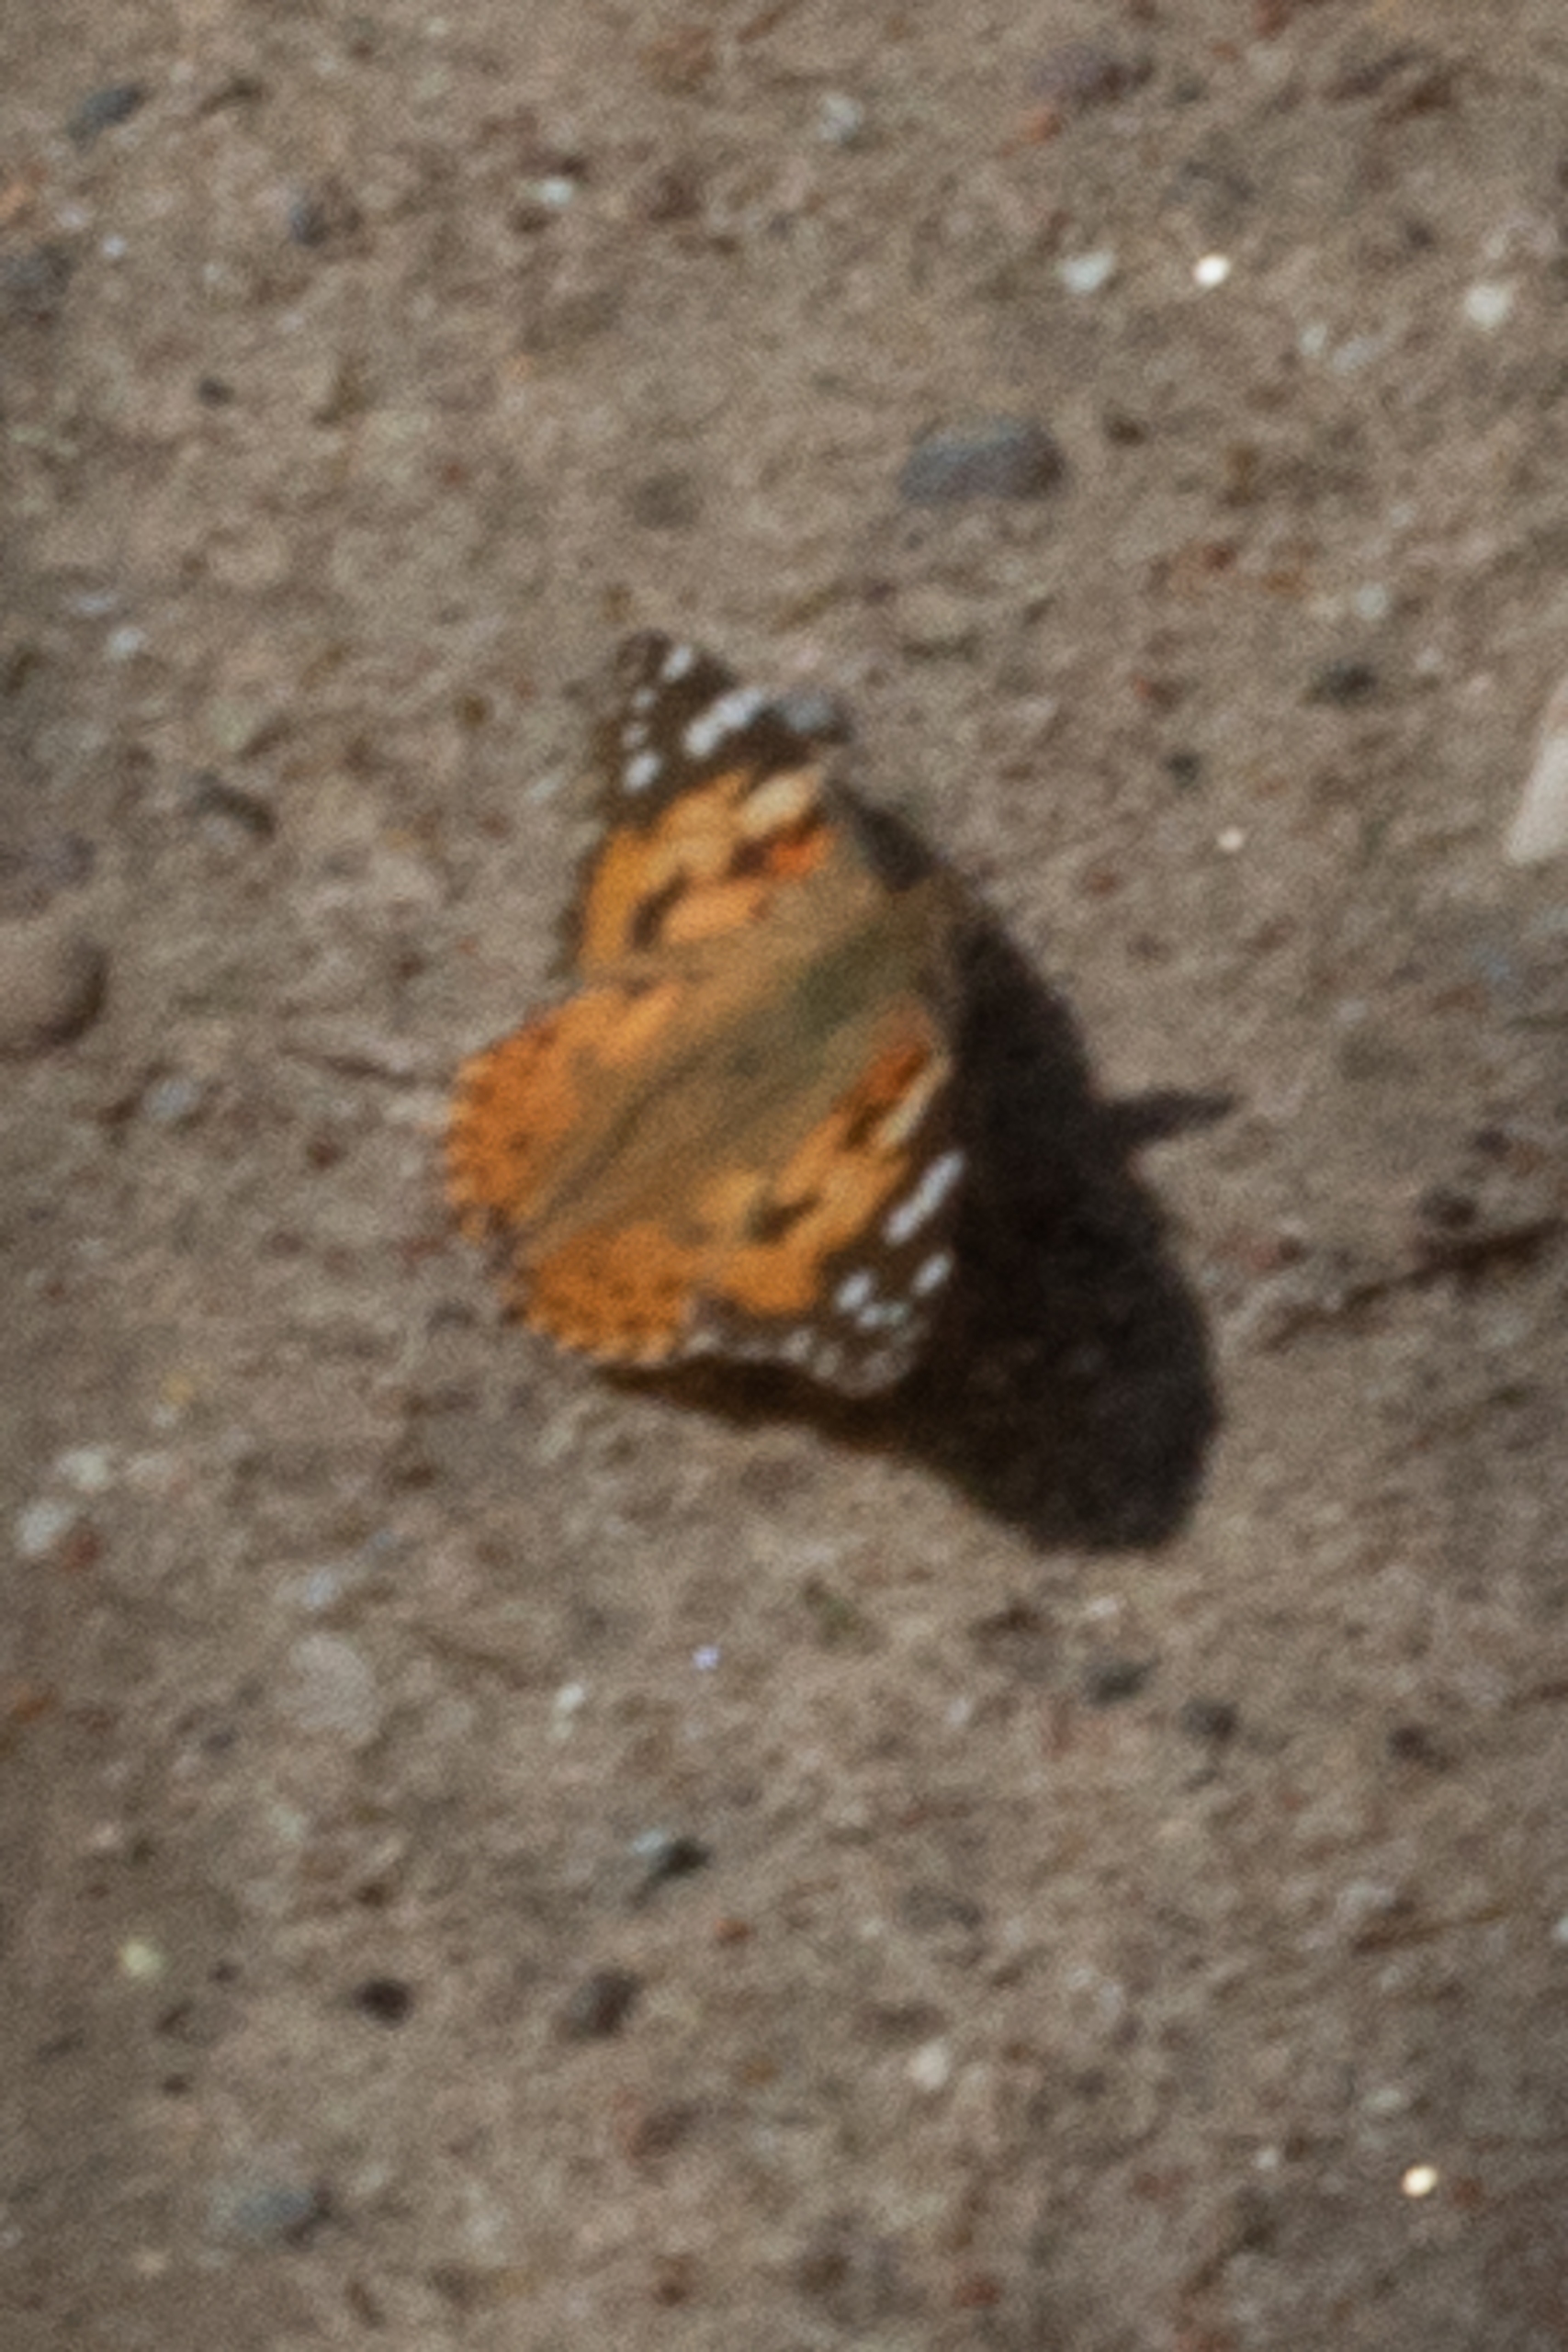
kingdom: Animalia
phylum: Arthropoda
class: Insecta
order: Lepidoptera
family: Nymphalidae
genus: Vanessa
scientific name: Vanessa cardui
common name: Tidselsommerfugl
